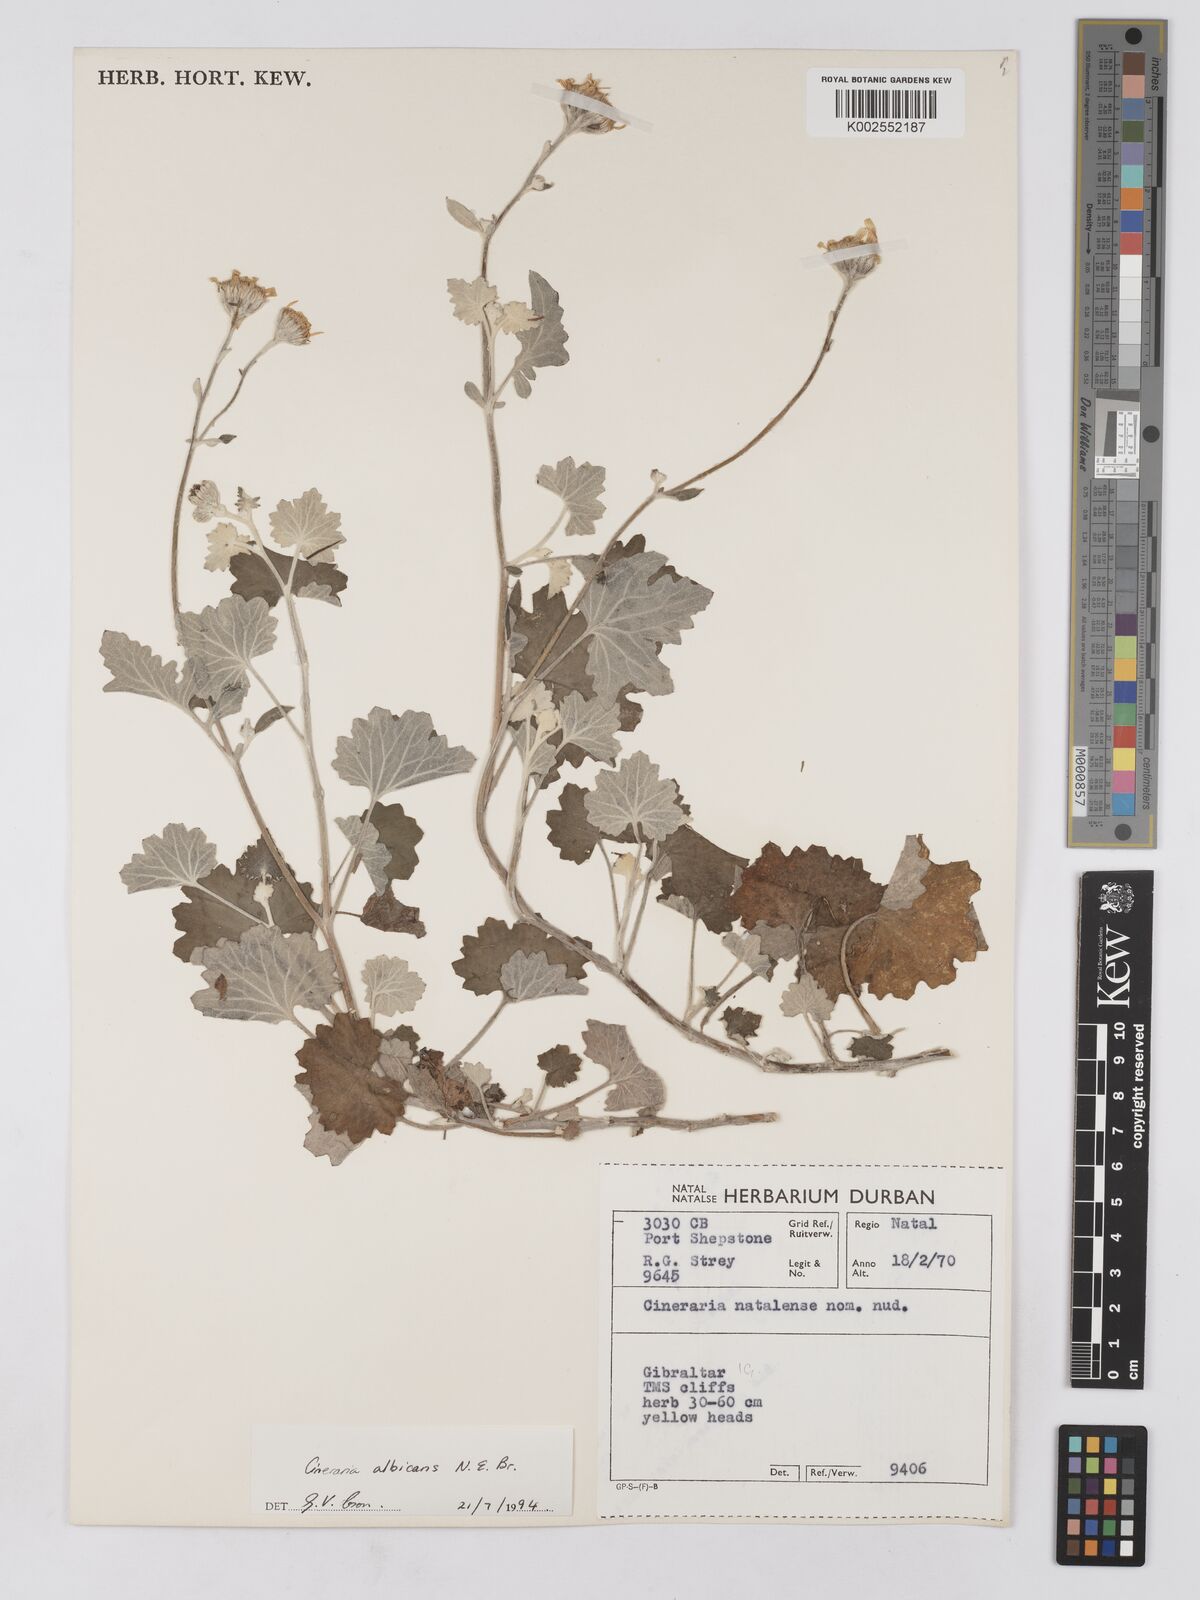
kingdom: Plantae
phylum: Tracheophyta
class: Magnoliopsida
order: Asterales
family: Asteraceae
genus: Cineraria
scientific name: Cineraria albicans
